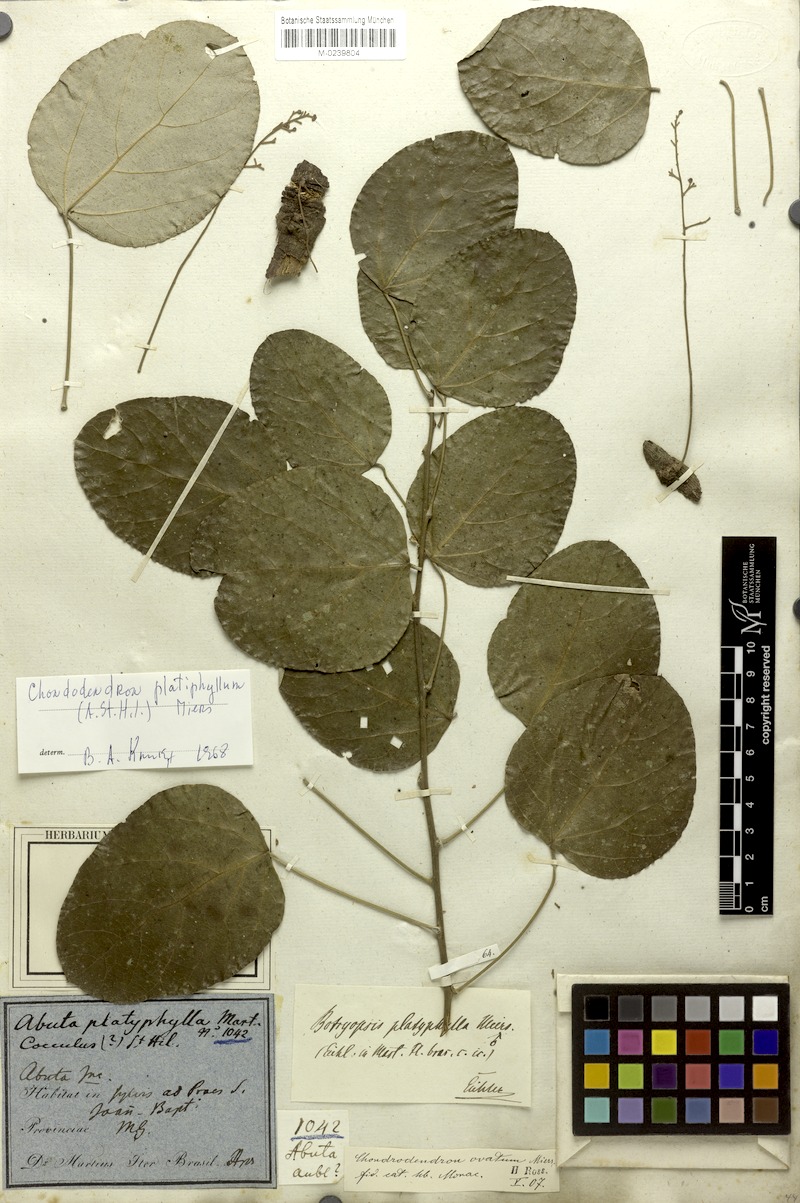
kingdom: Plantae
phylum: Tracheophyta
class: Magnoliopsida
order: Ranunculales
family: Menispermaceae
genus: Chondrodendron
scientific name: Chondrodendron platyphyllum
